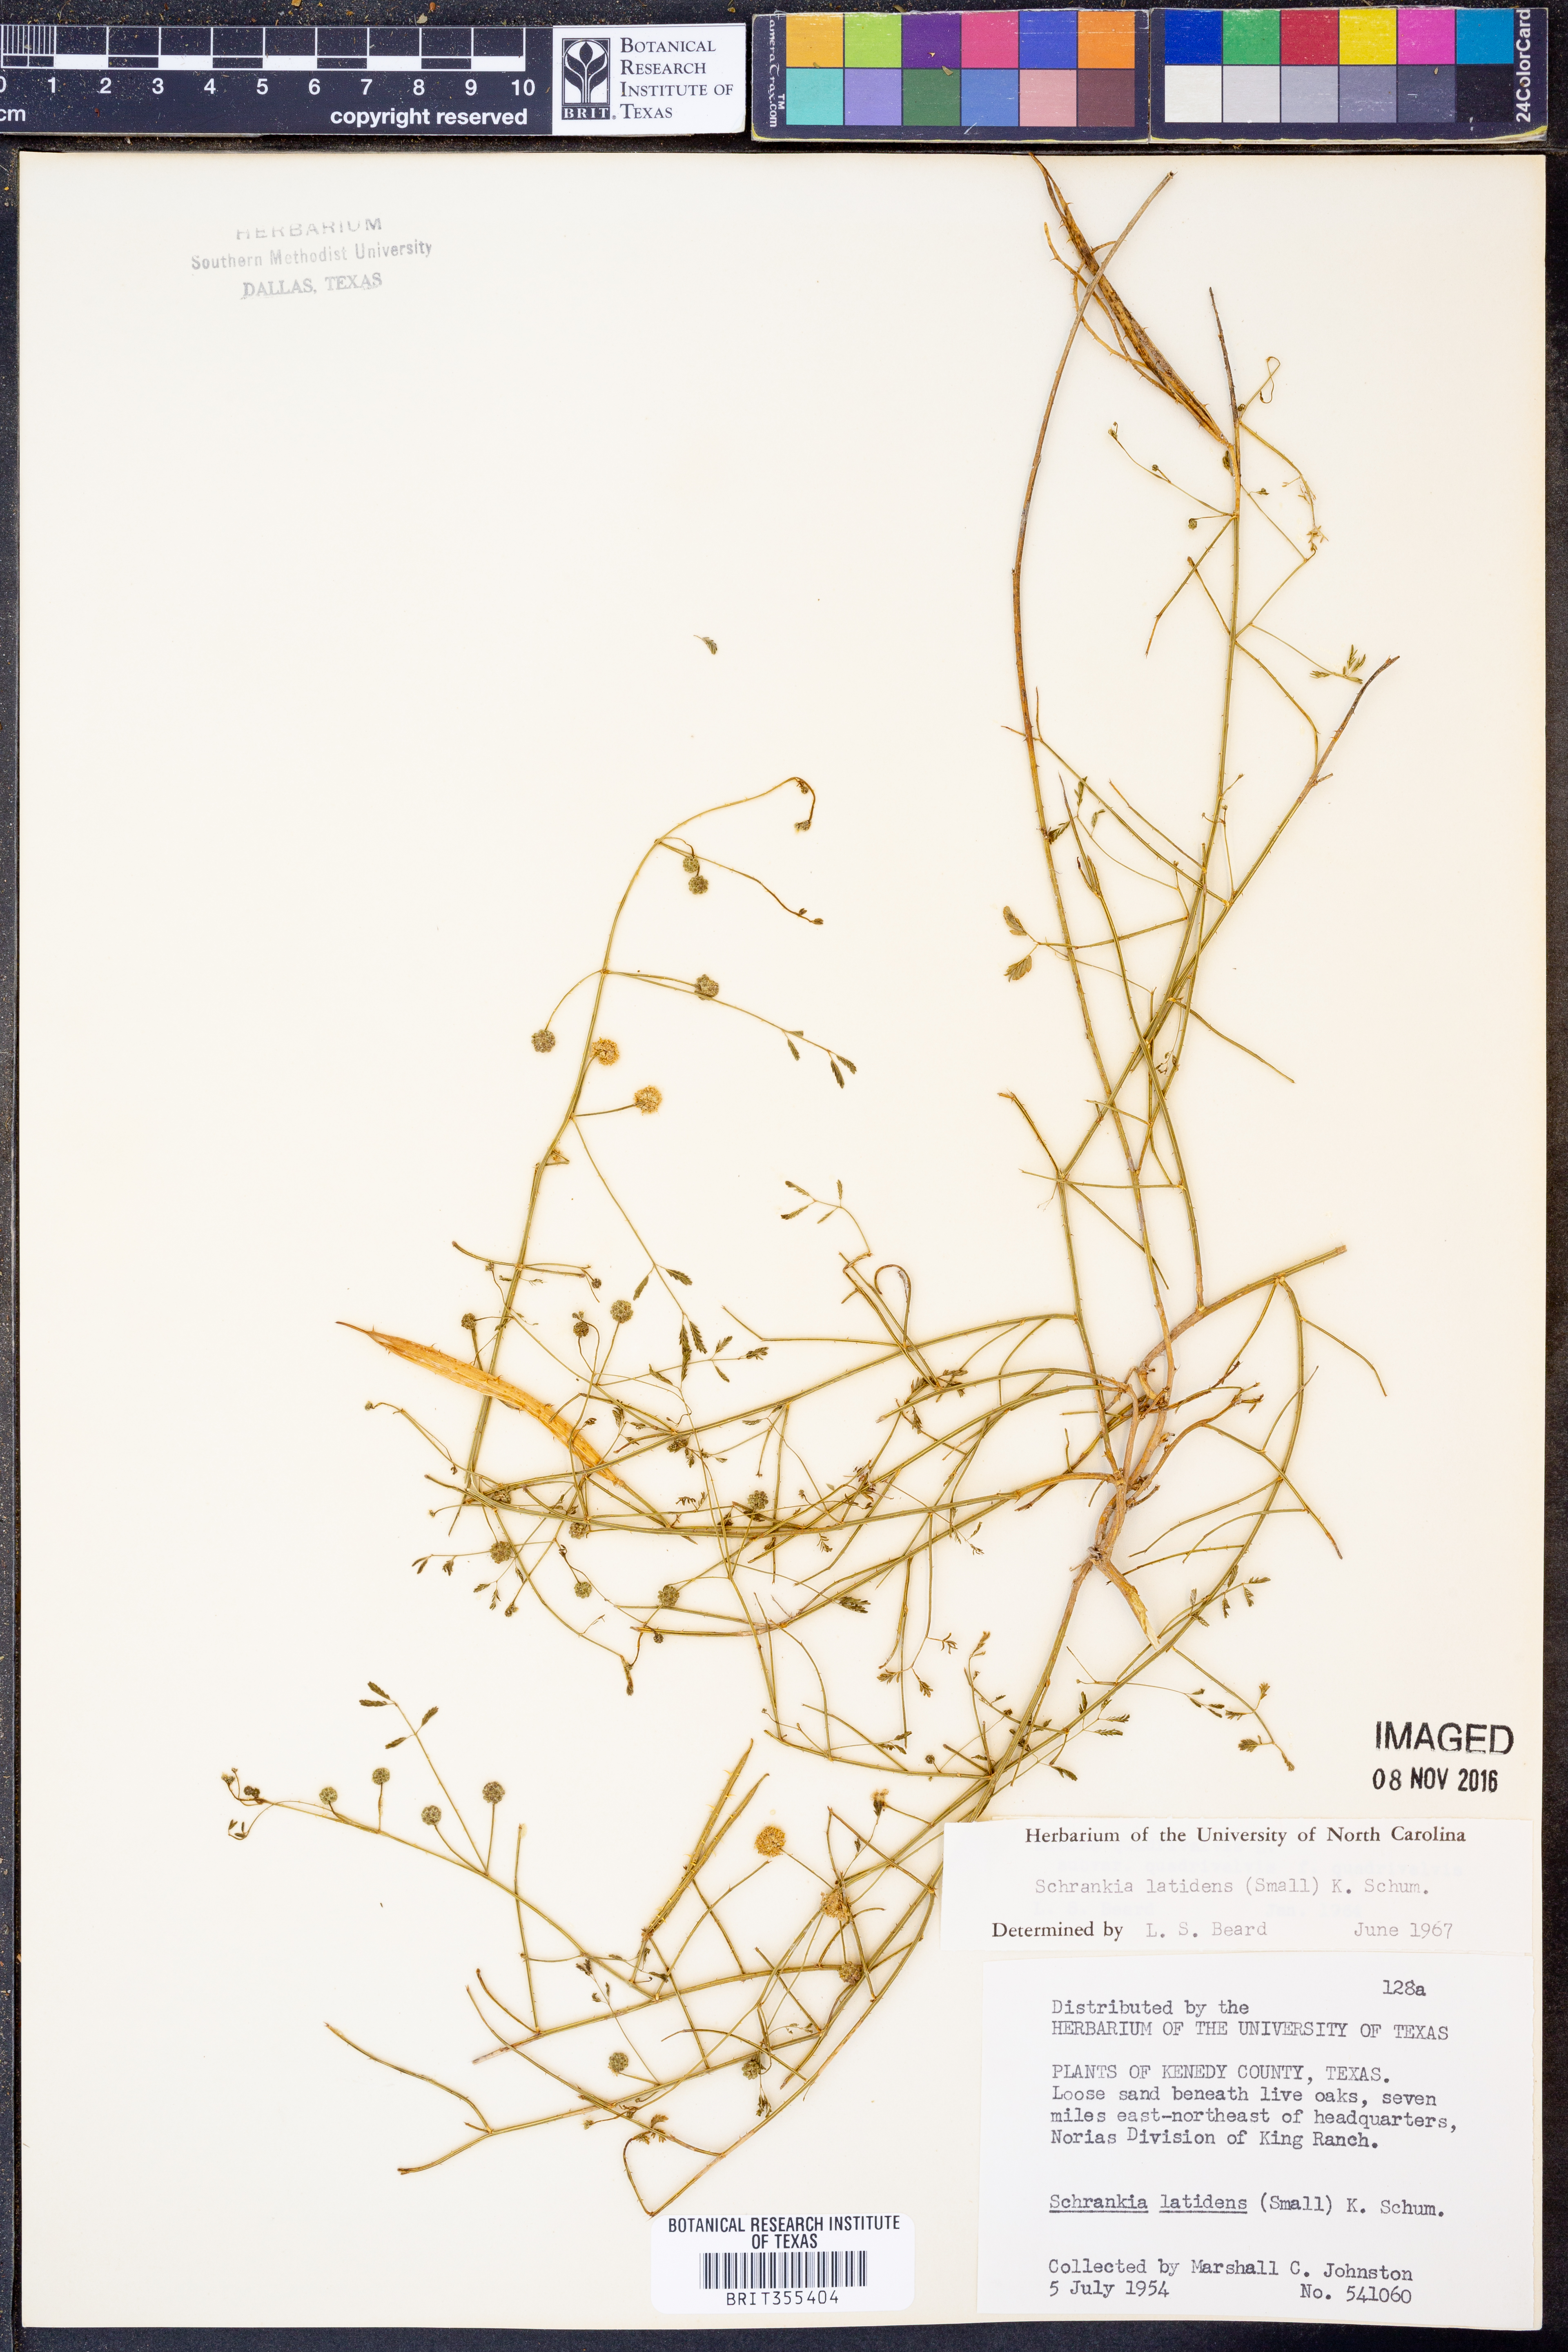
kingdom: Plantae
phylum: Tracheophyta
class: Magnoliopsida
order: Fabales
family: Fabaceae
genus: Mimosa
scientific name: Mimosa quadrivalvis
